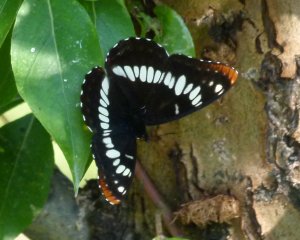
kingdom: Animalia
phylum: Arthropoda
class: Insecta
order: Lepidoptera
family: Nymphalidae
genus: Limenitis
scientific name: Limenitis lorquini
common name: Lorquin's Admiral
